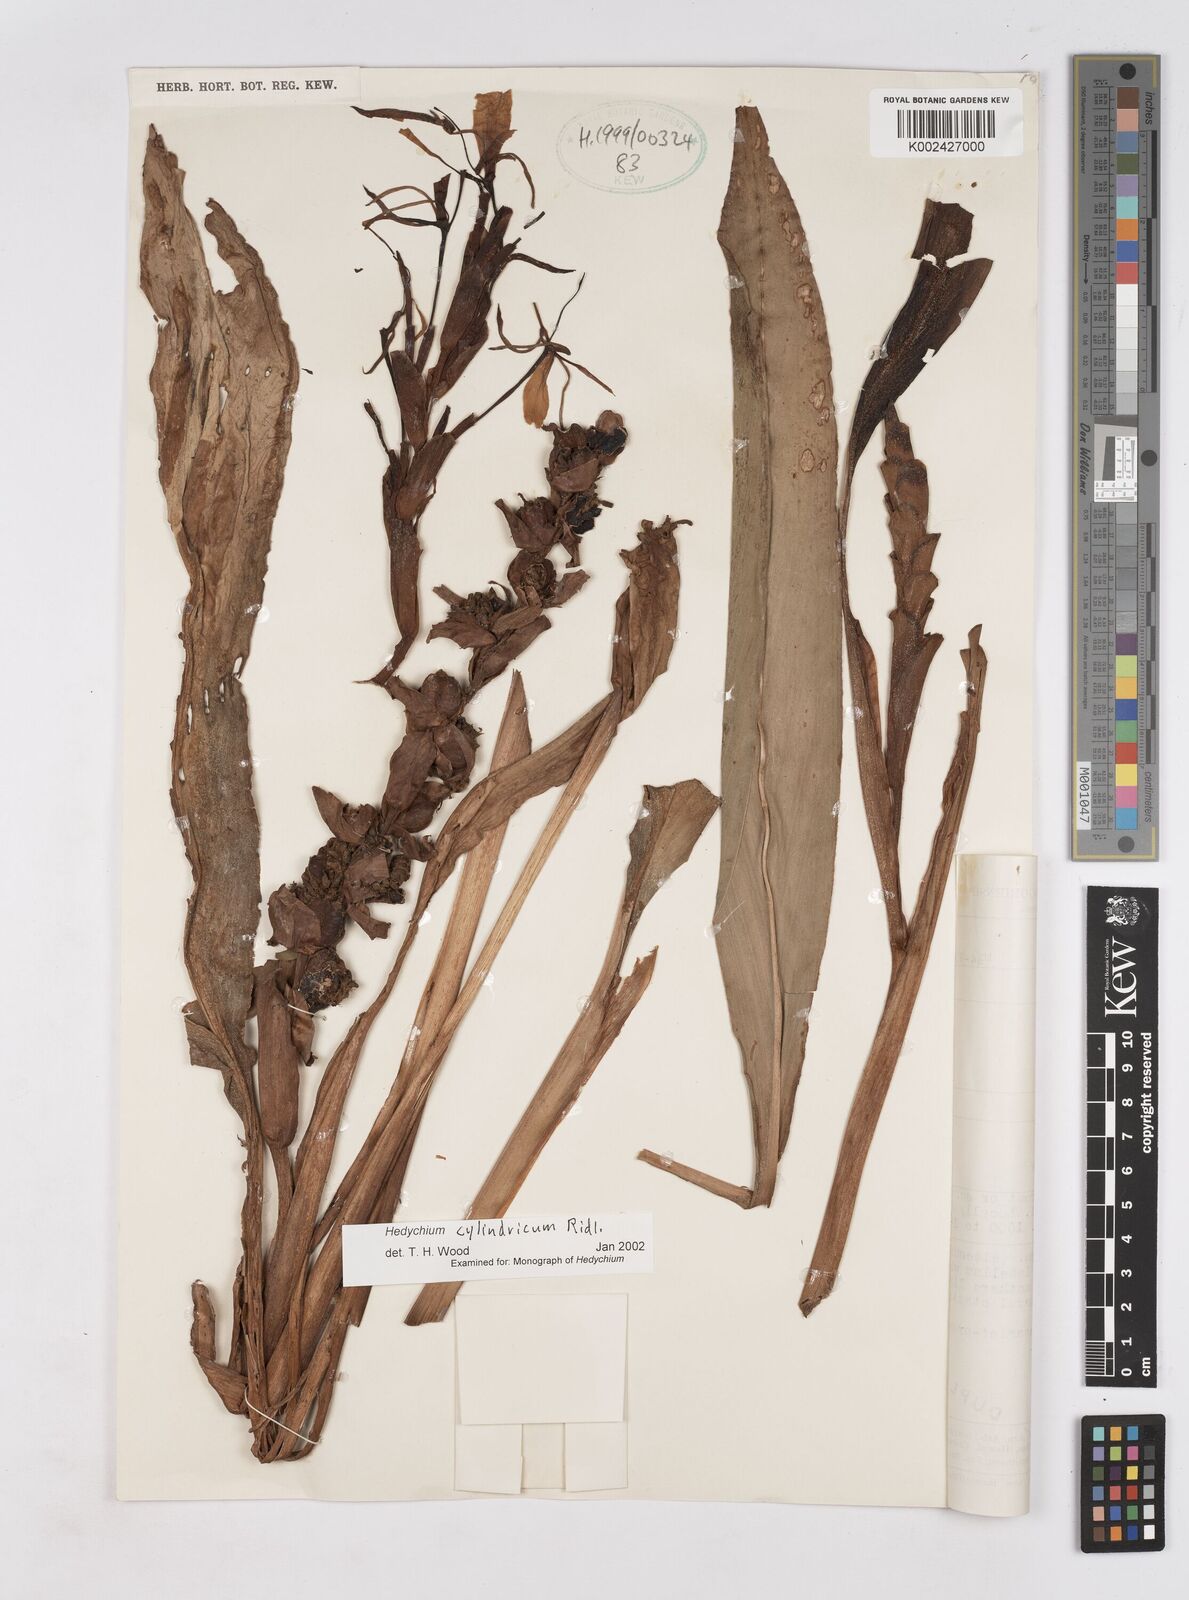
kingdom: Plantae
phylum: Tracheophyta
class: Liliopsida
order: Zingiberales
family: Zingiberaceae
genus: Hedychium
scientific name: Hedychium cylindricum
